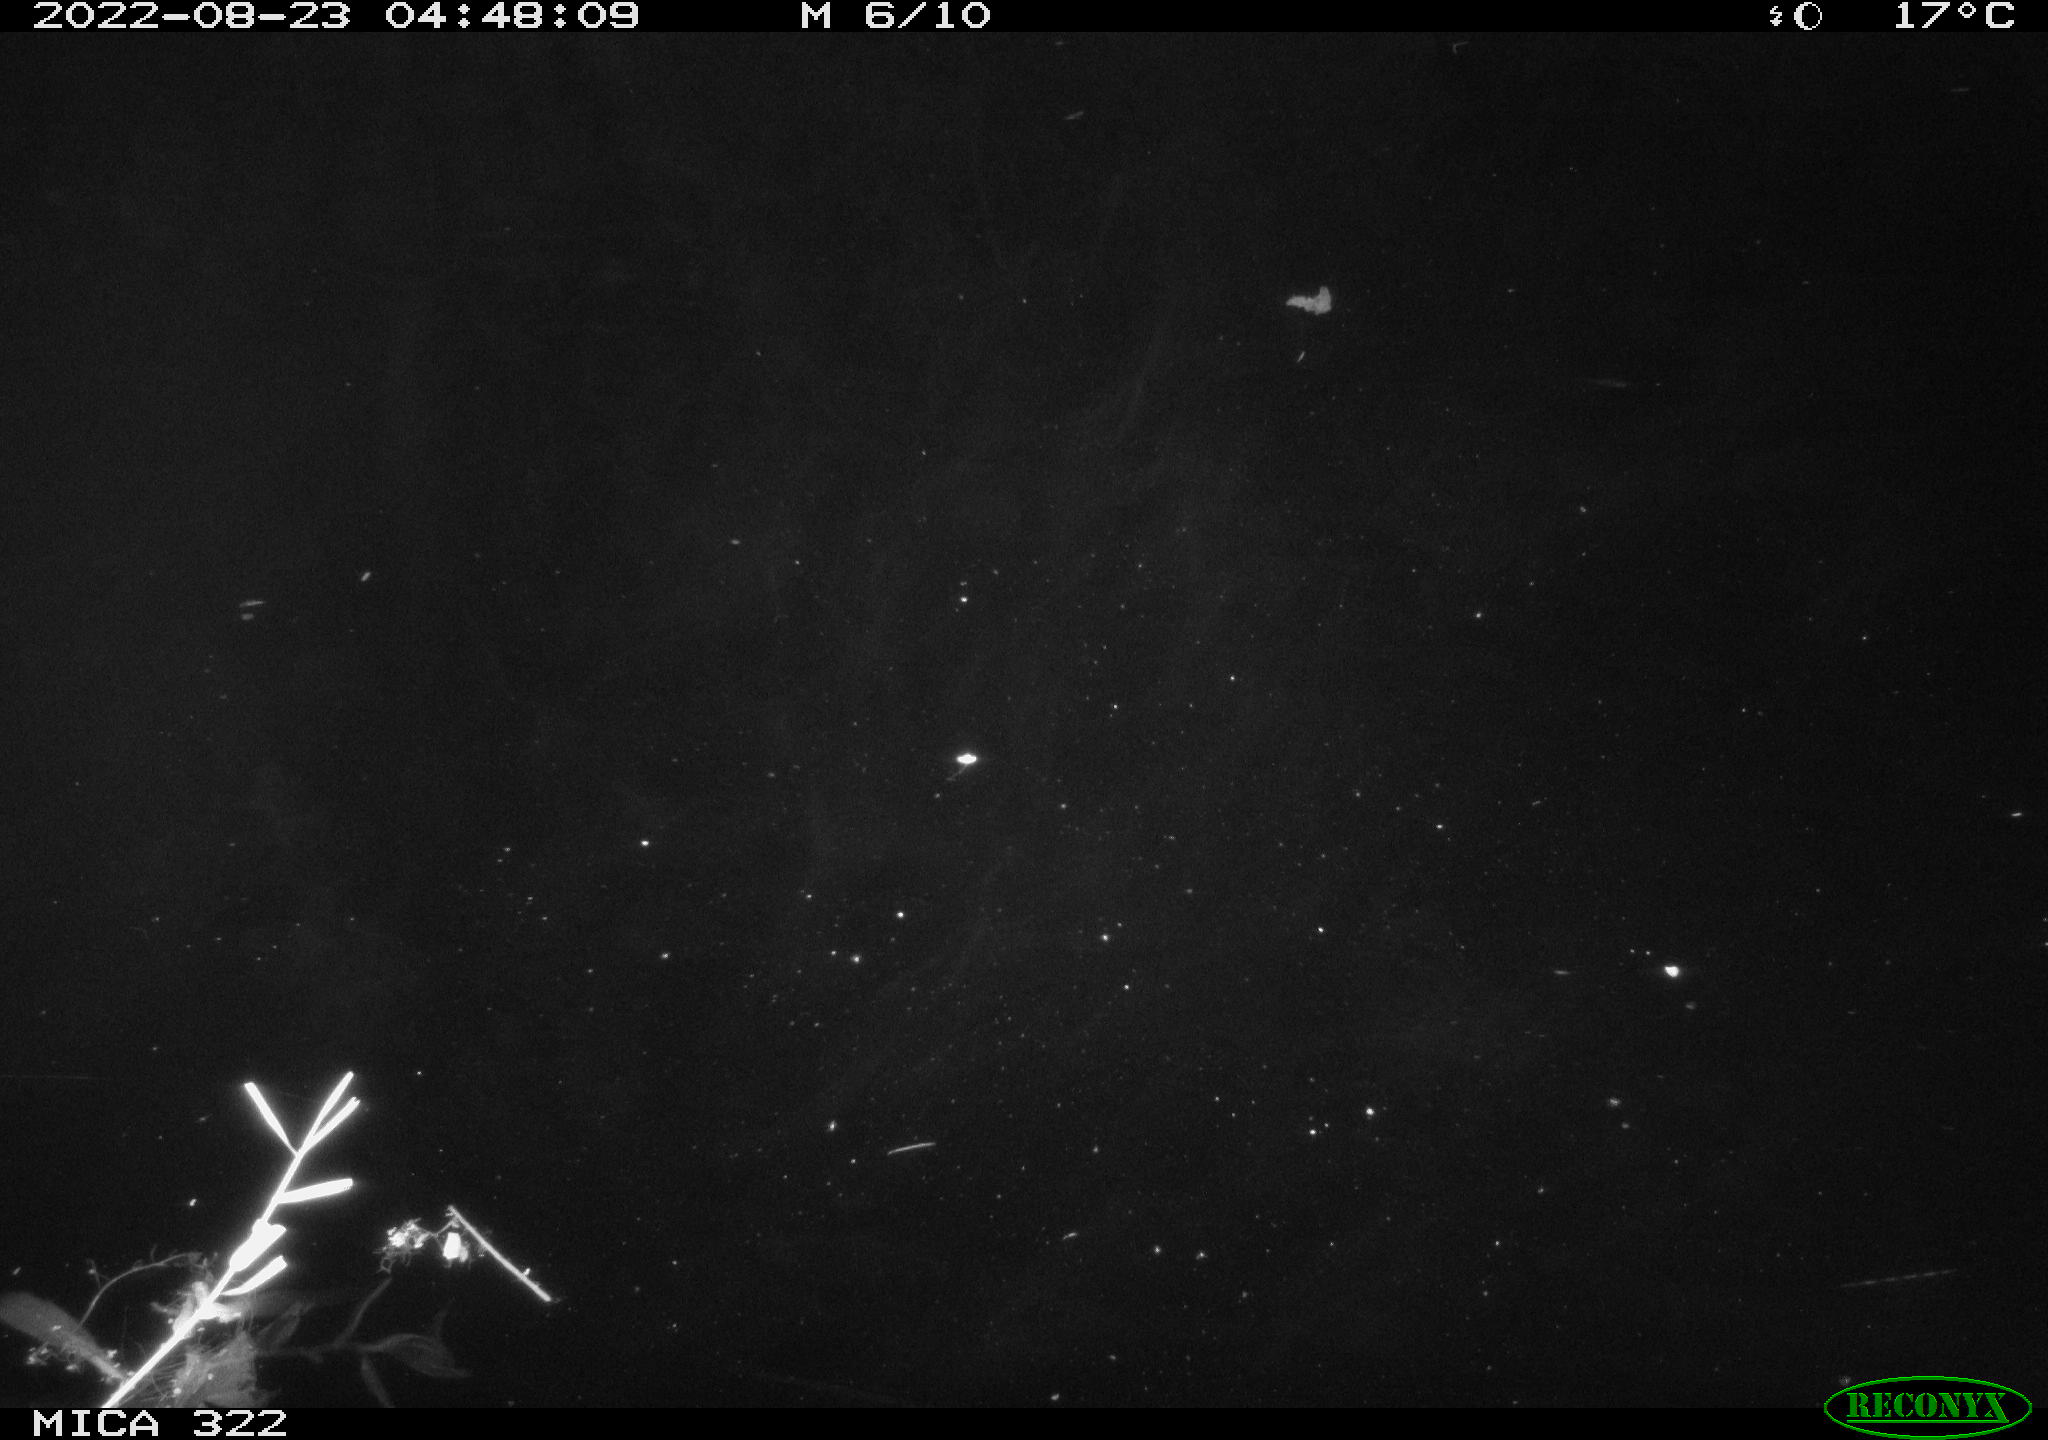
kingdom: Animalia
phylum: Chordata
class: Mammalia
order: Rodentia
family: Cricetidae
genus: Ondatra
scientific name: Ondatra zibethicus
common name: Muskrat
